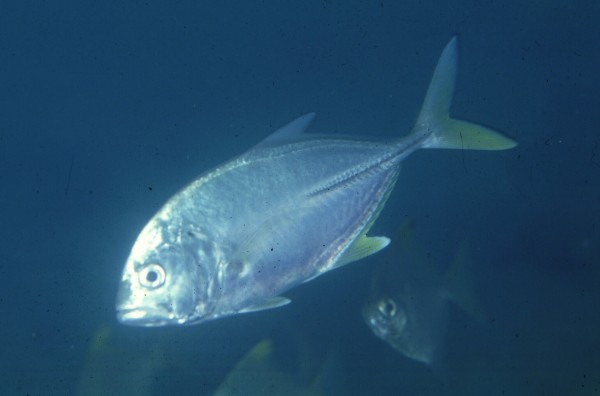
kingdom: Animalia
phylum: Chordata
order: Perciformes
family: Carangidae
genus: Caranx
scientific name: Caranx
